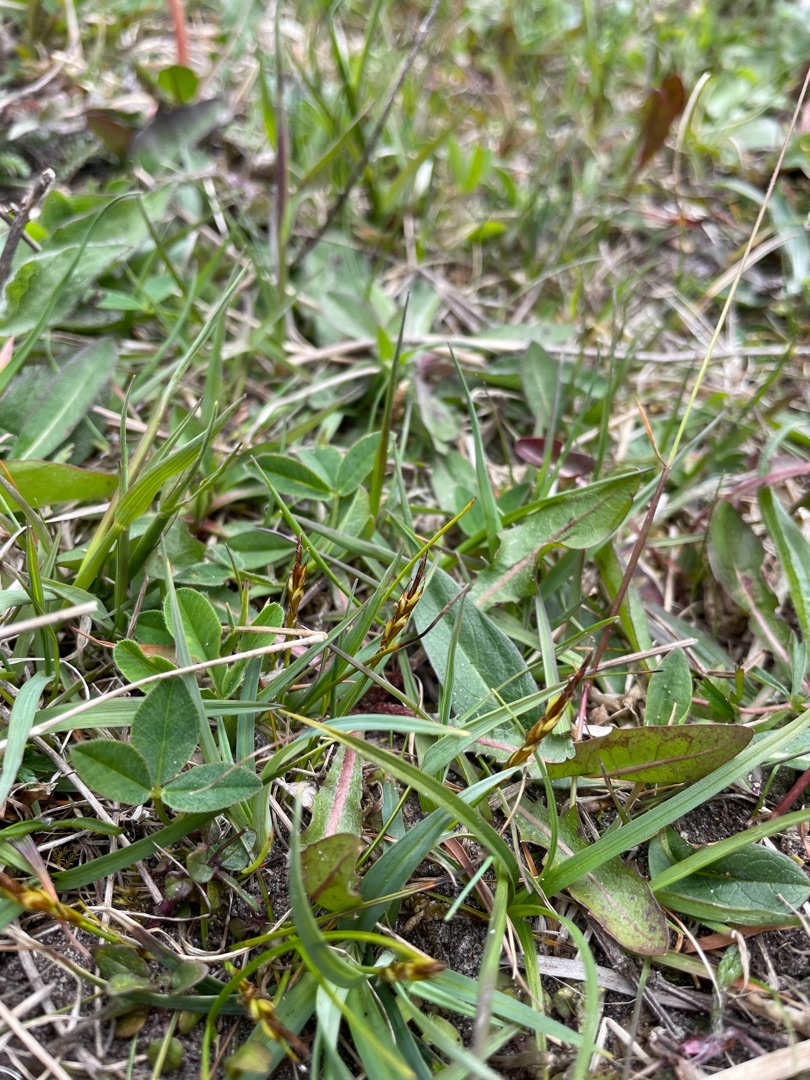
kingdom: Plantae
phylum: Tracheophyta
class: Liliopsida
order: Poales
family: Cyperaceae
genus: Carex
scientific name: Carex pulicaris
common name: Loppe-star
